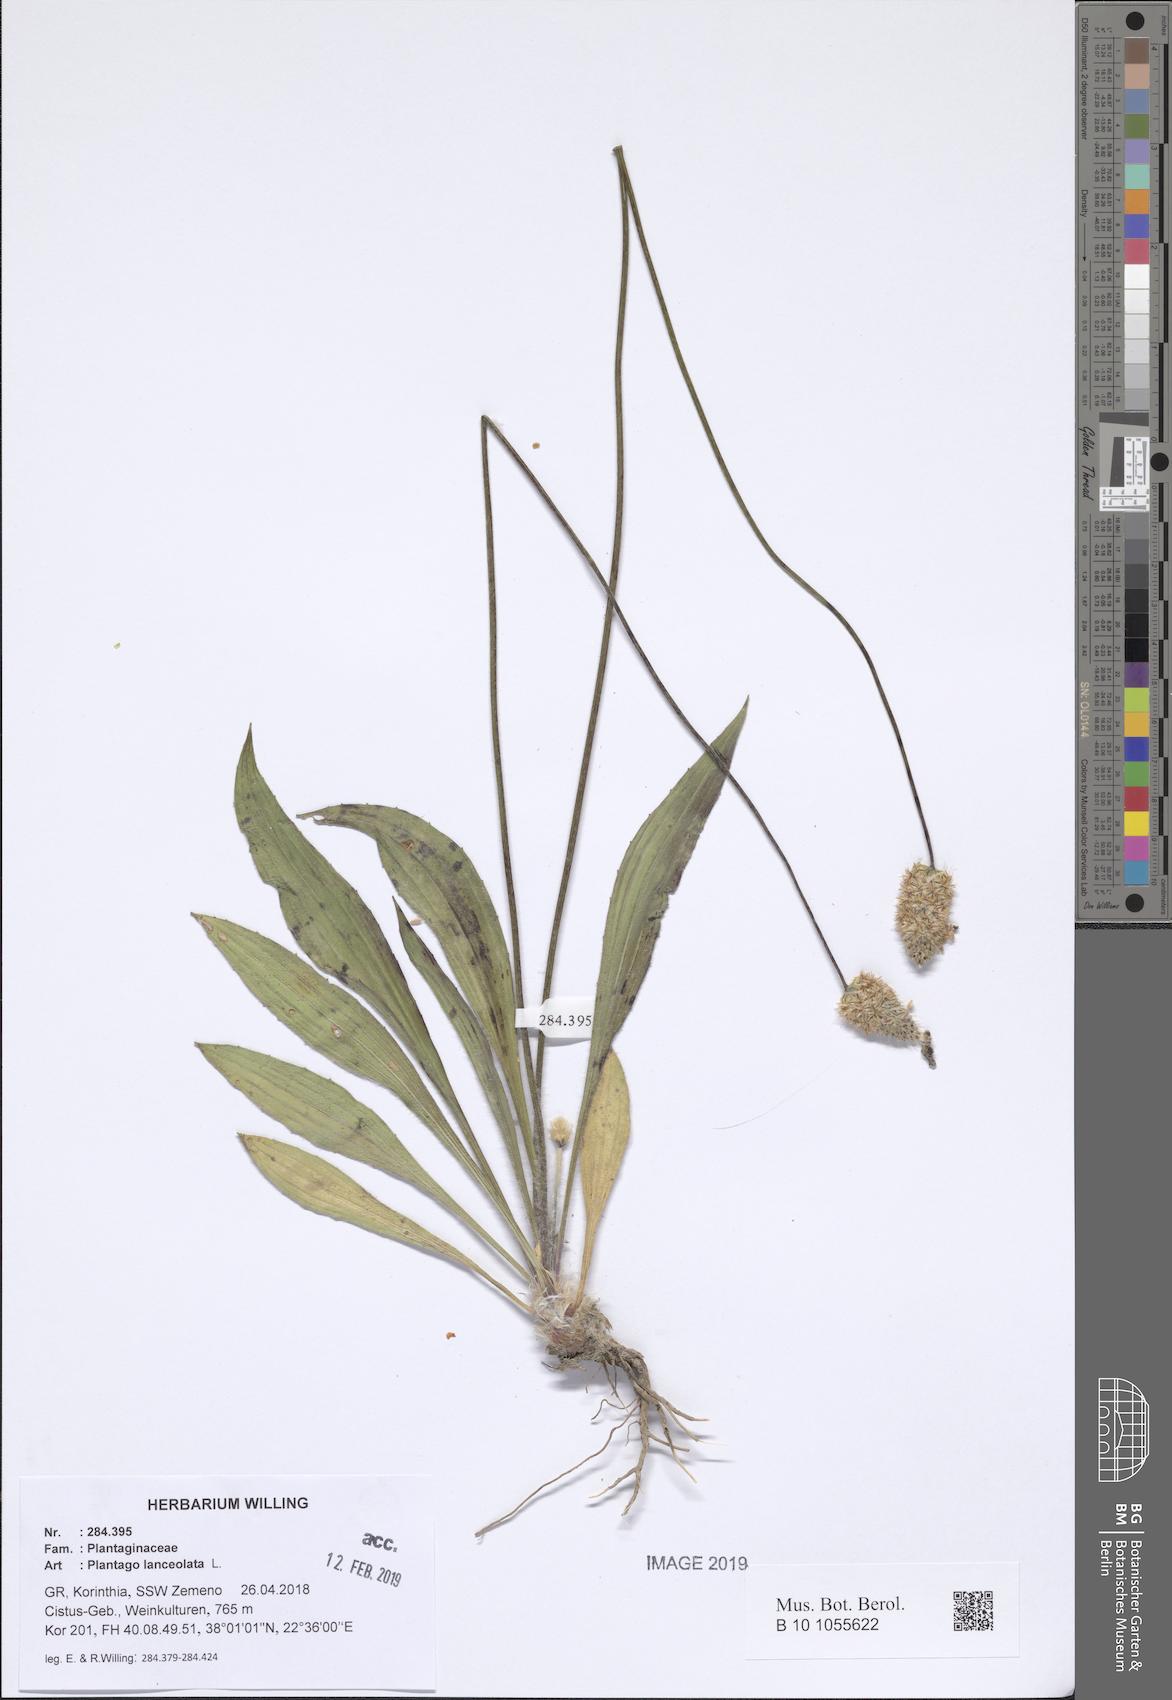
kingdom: Plantae
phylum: Tracheophyta
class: Magnoliopsida
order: Lamiales
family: Plantaginaceae
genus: Plantago
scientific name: Plantago lanceolata
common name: Ribwort plantain
